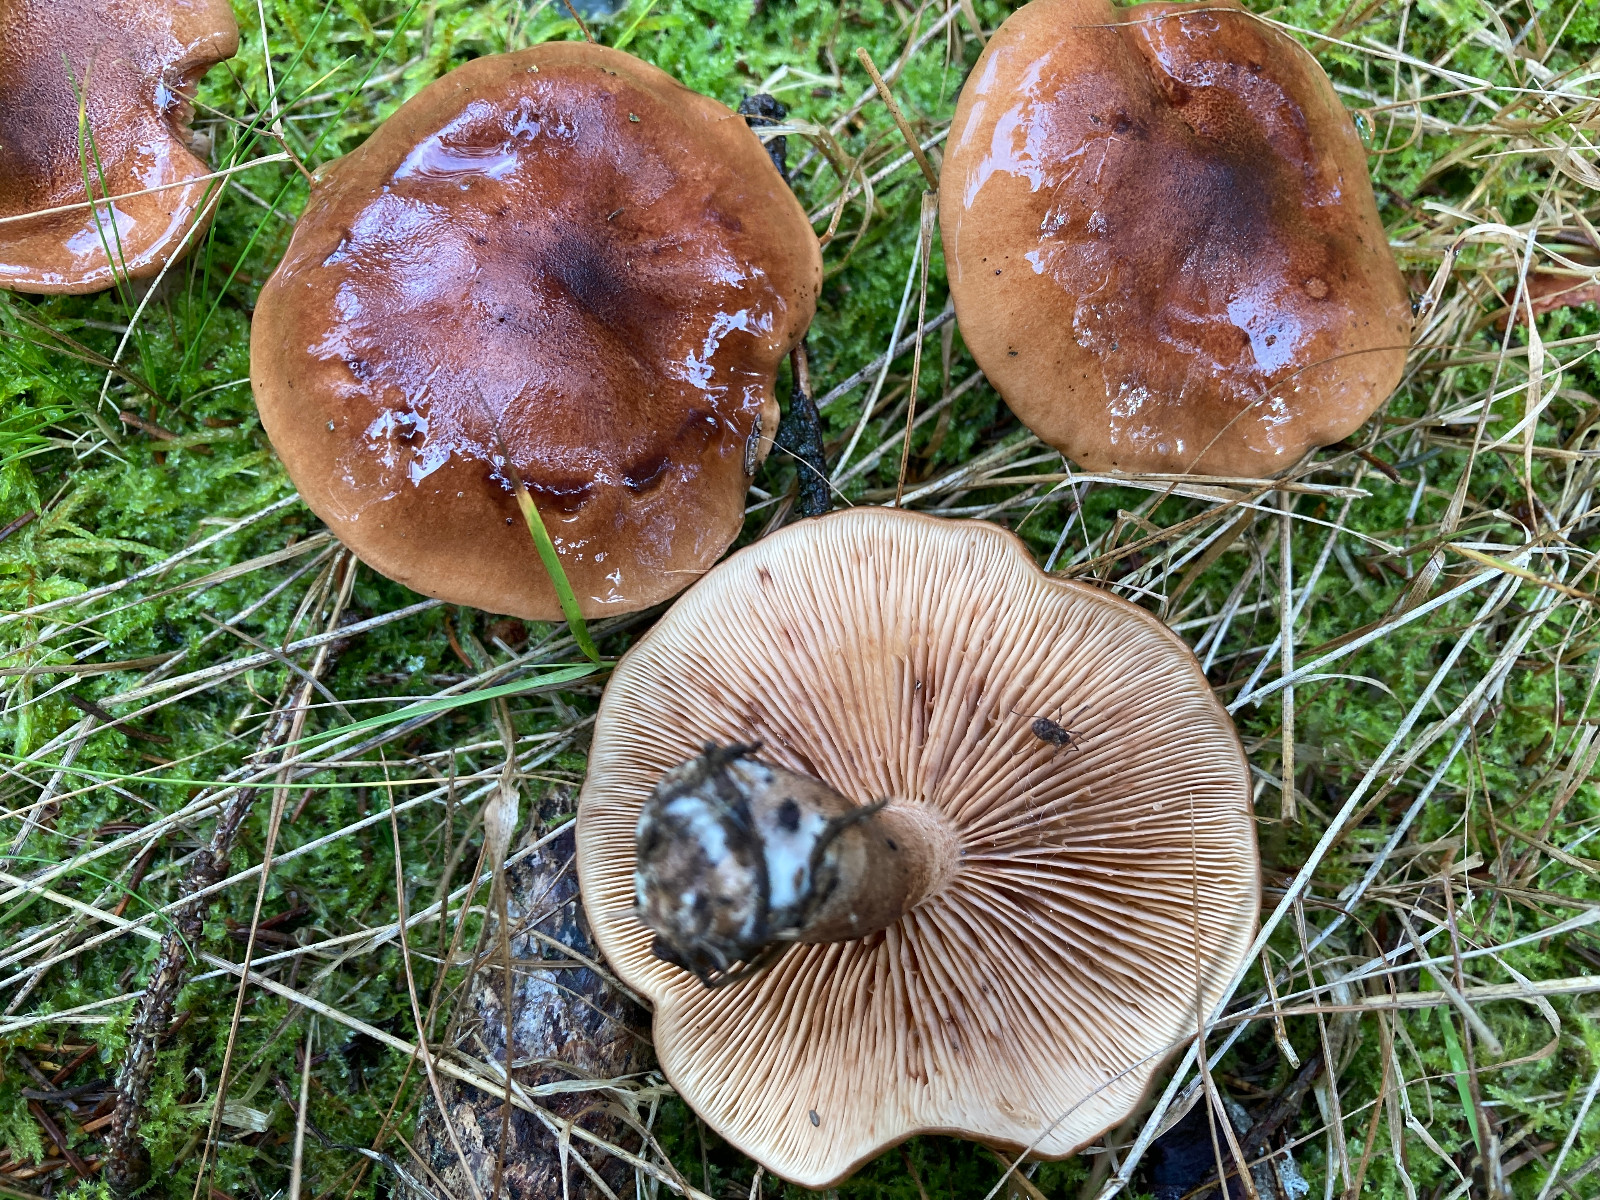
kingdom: Fungi
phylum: Basidiomycota
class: Agaricomycetes
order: Agaricales
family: Tricholomataceae
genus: Tricholoma
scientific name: Tricholoma fulvum
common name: birke-ridderhat
